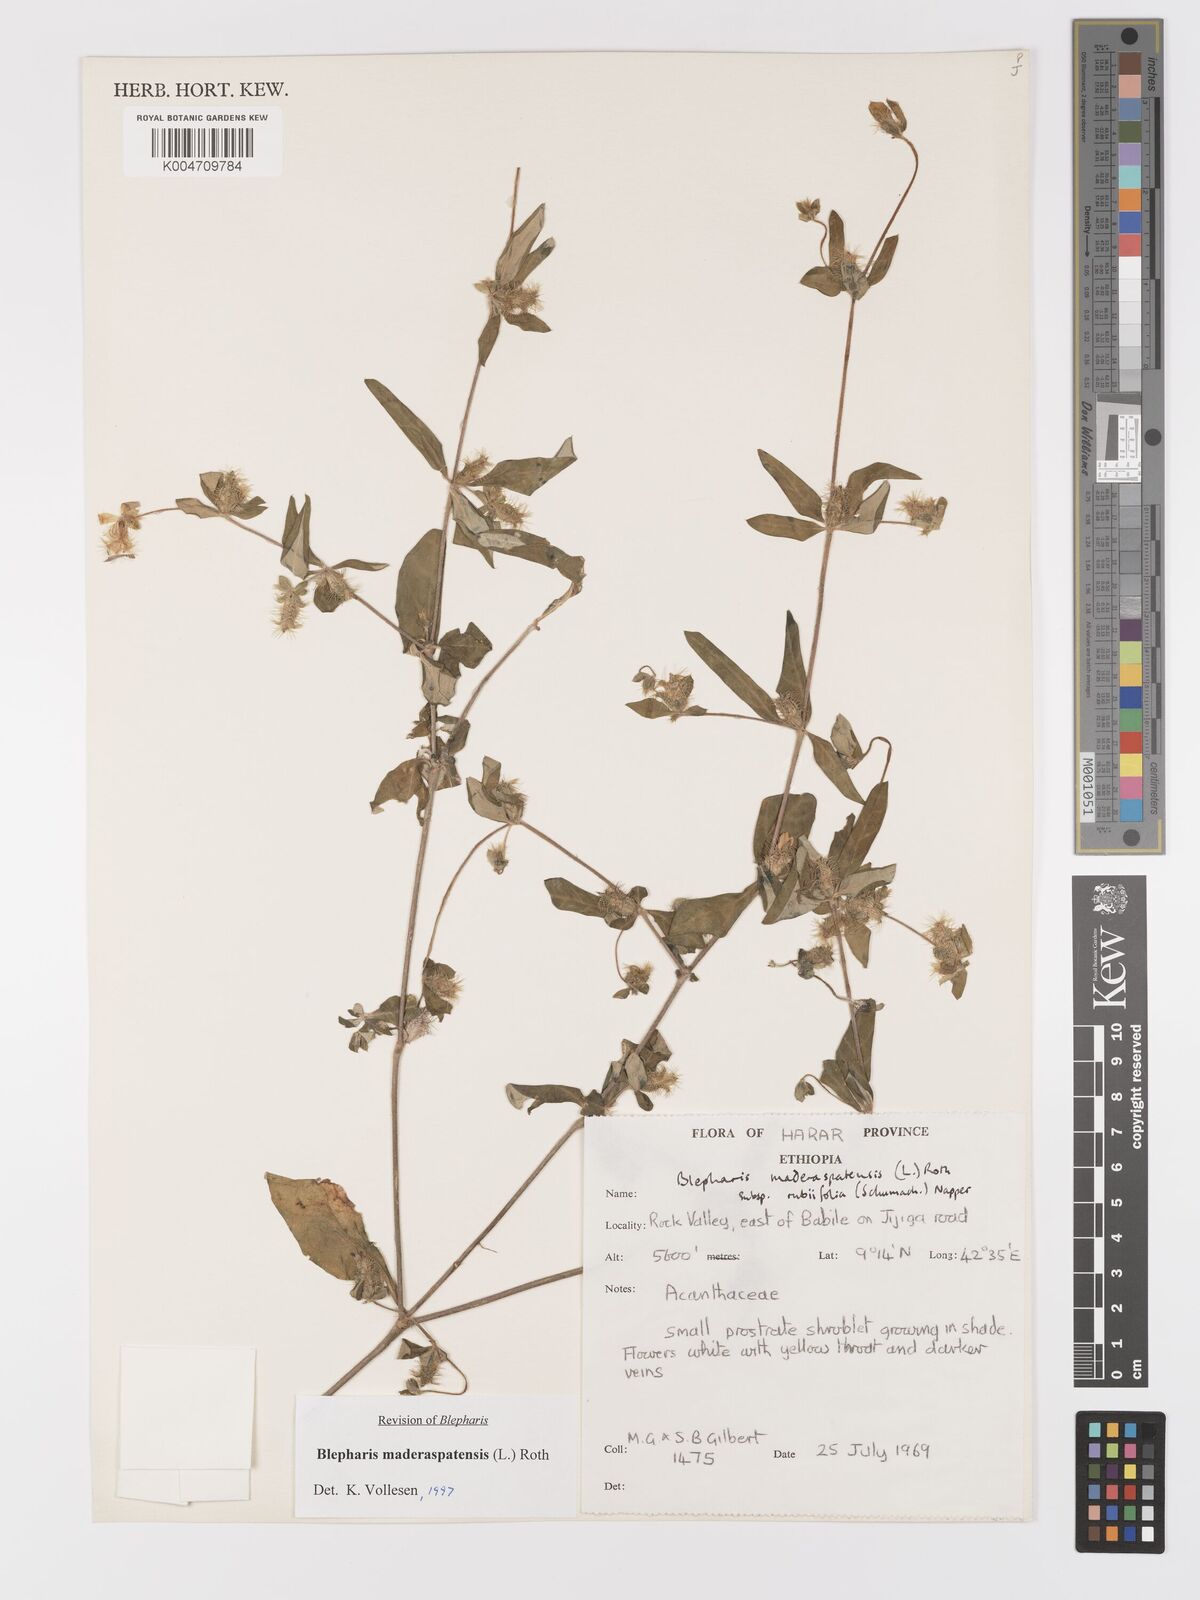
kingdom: Plantae
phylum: Tracheophyta
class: Magnoliopsida
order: Lamiales
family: Acanthaceae
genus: Blepharis
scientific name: Blepharis maderaspatensis
